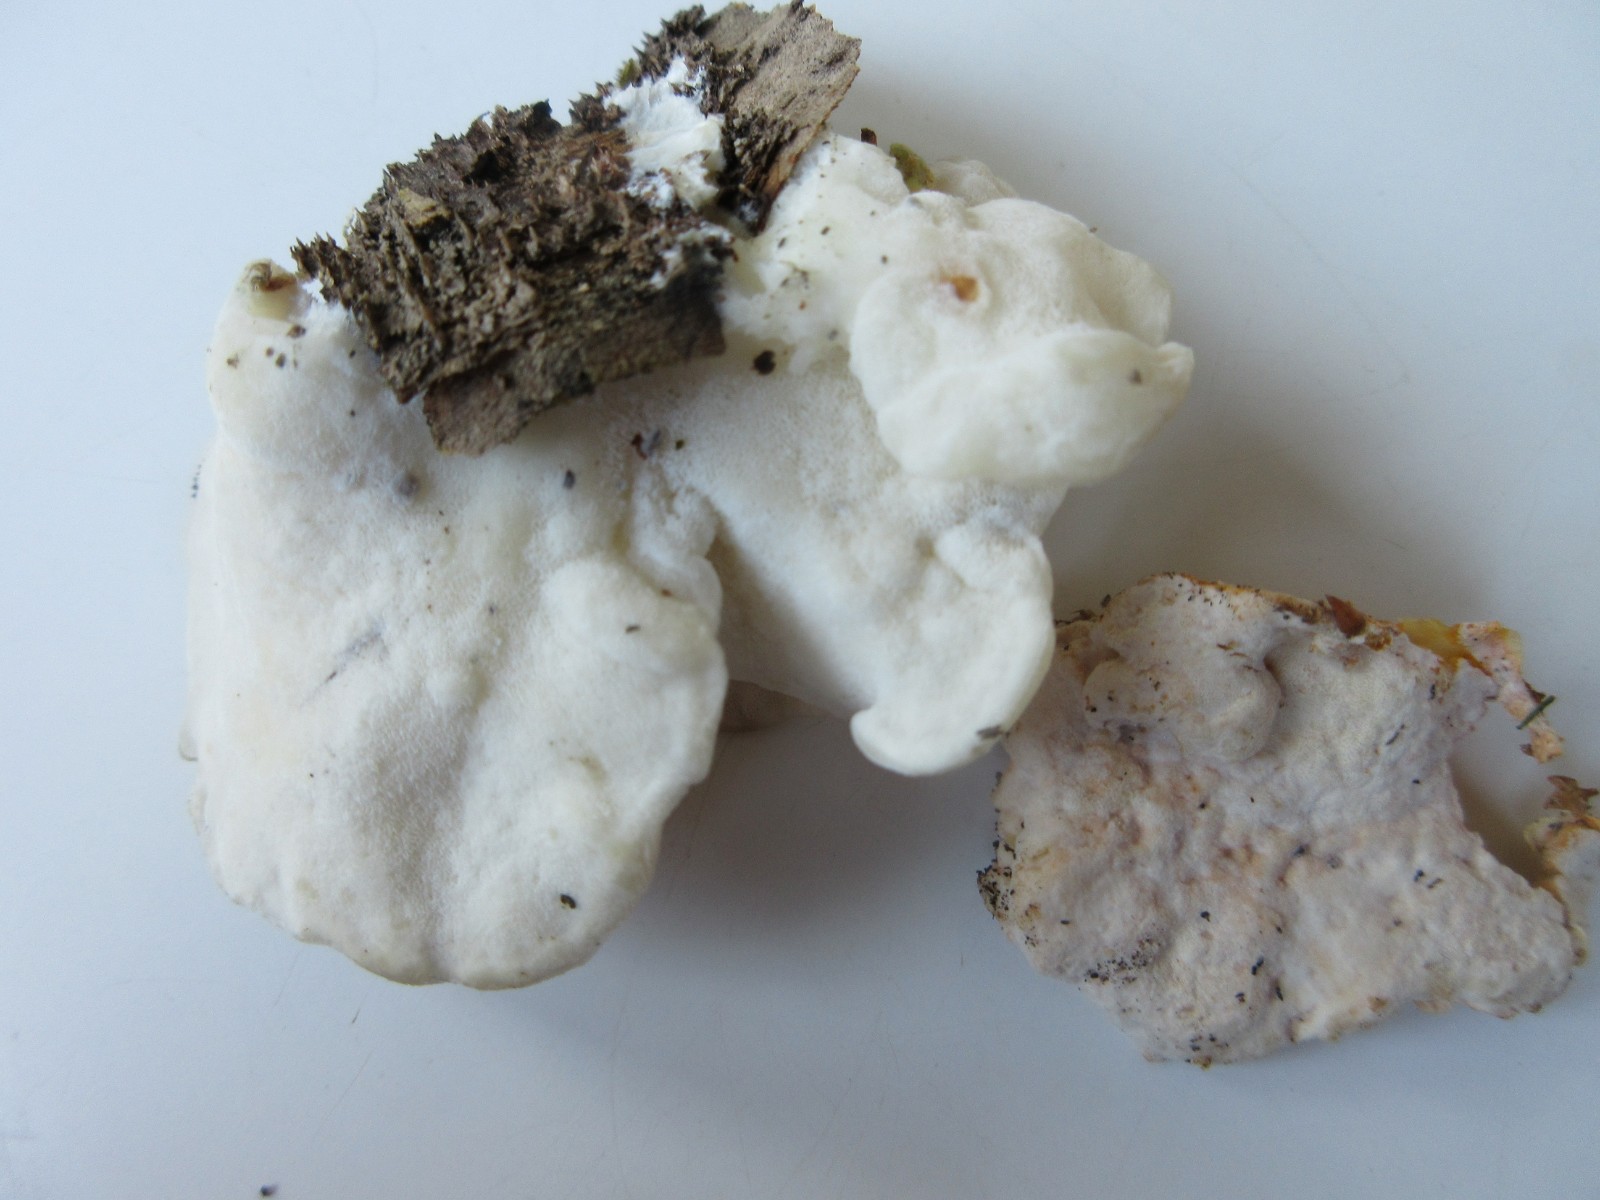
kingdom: Fungi
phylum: Ascomycota
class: Sordariomycetes
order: Hypocreales
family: Hypocreaceae
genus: Protocrea
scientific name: Protocrea pallida
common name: bleg kødkerne
